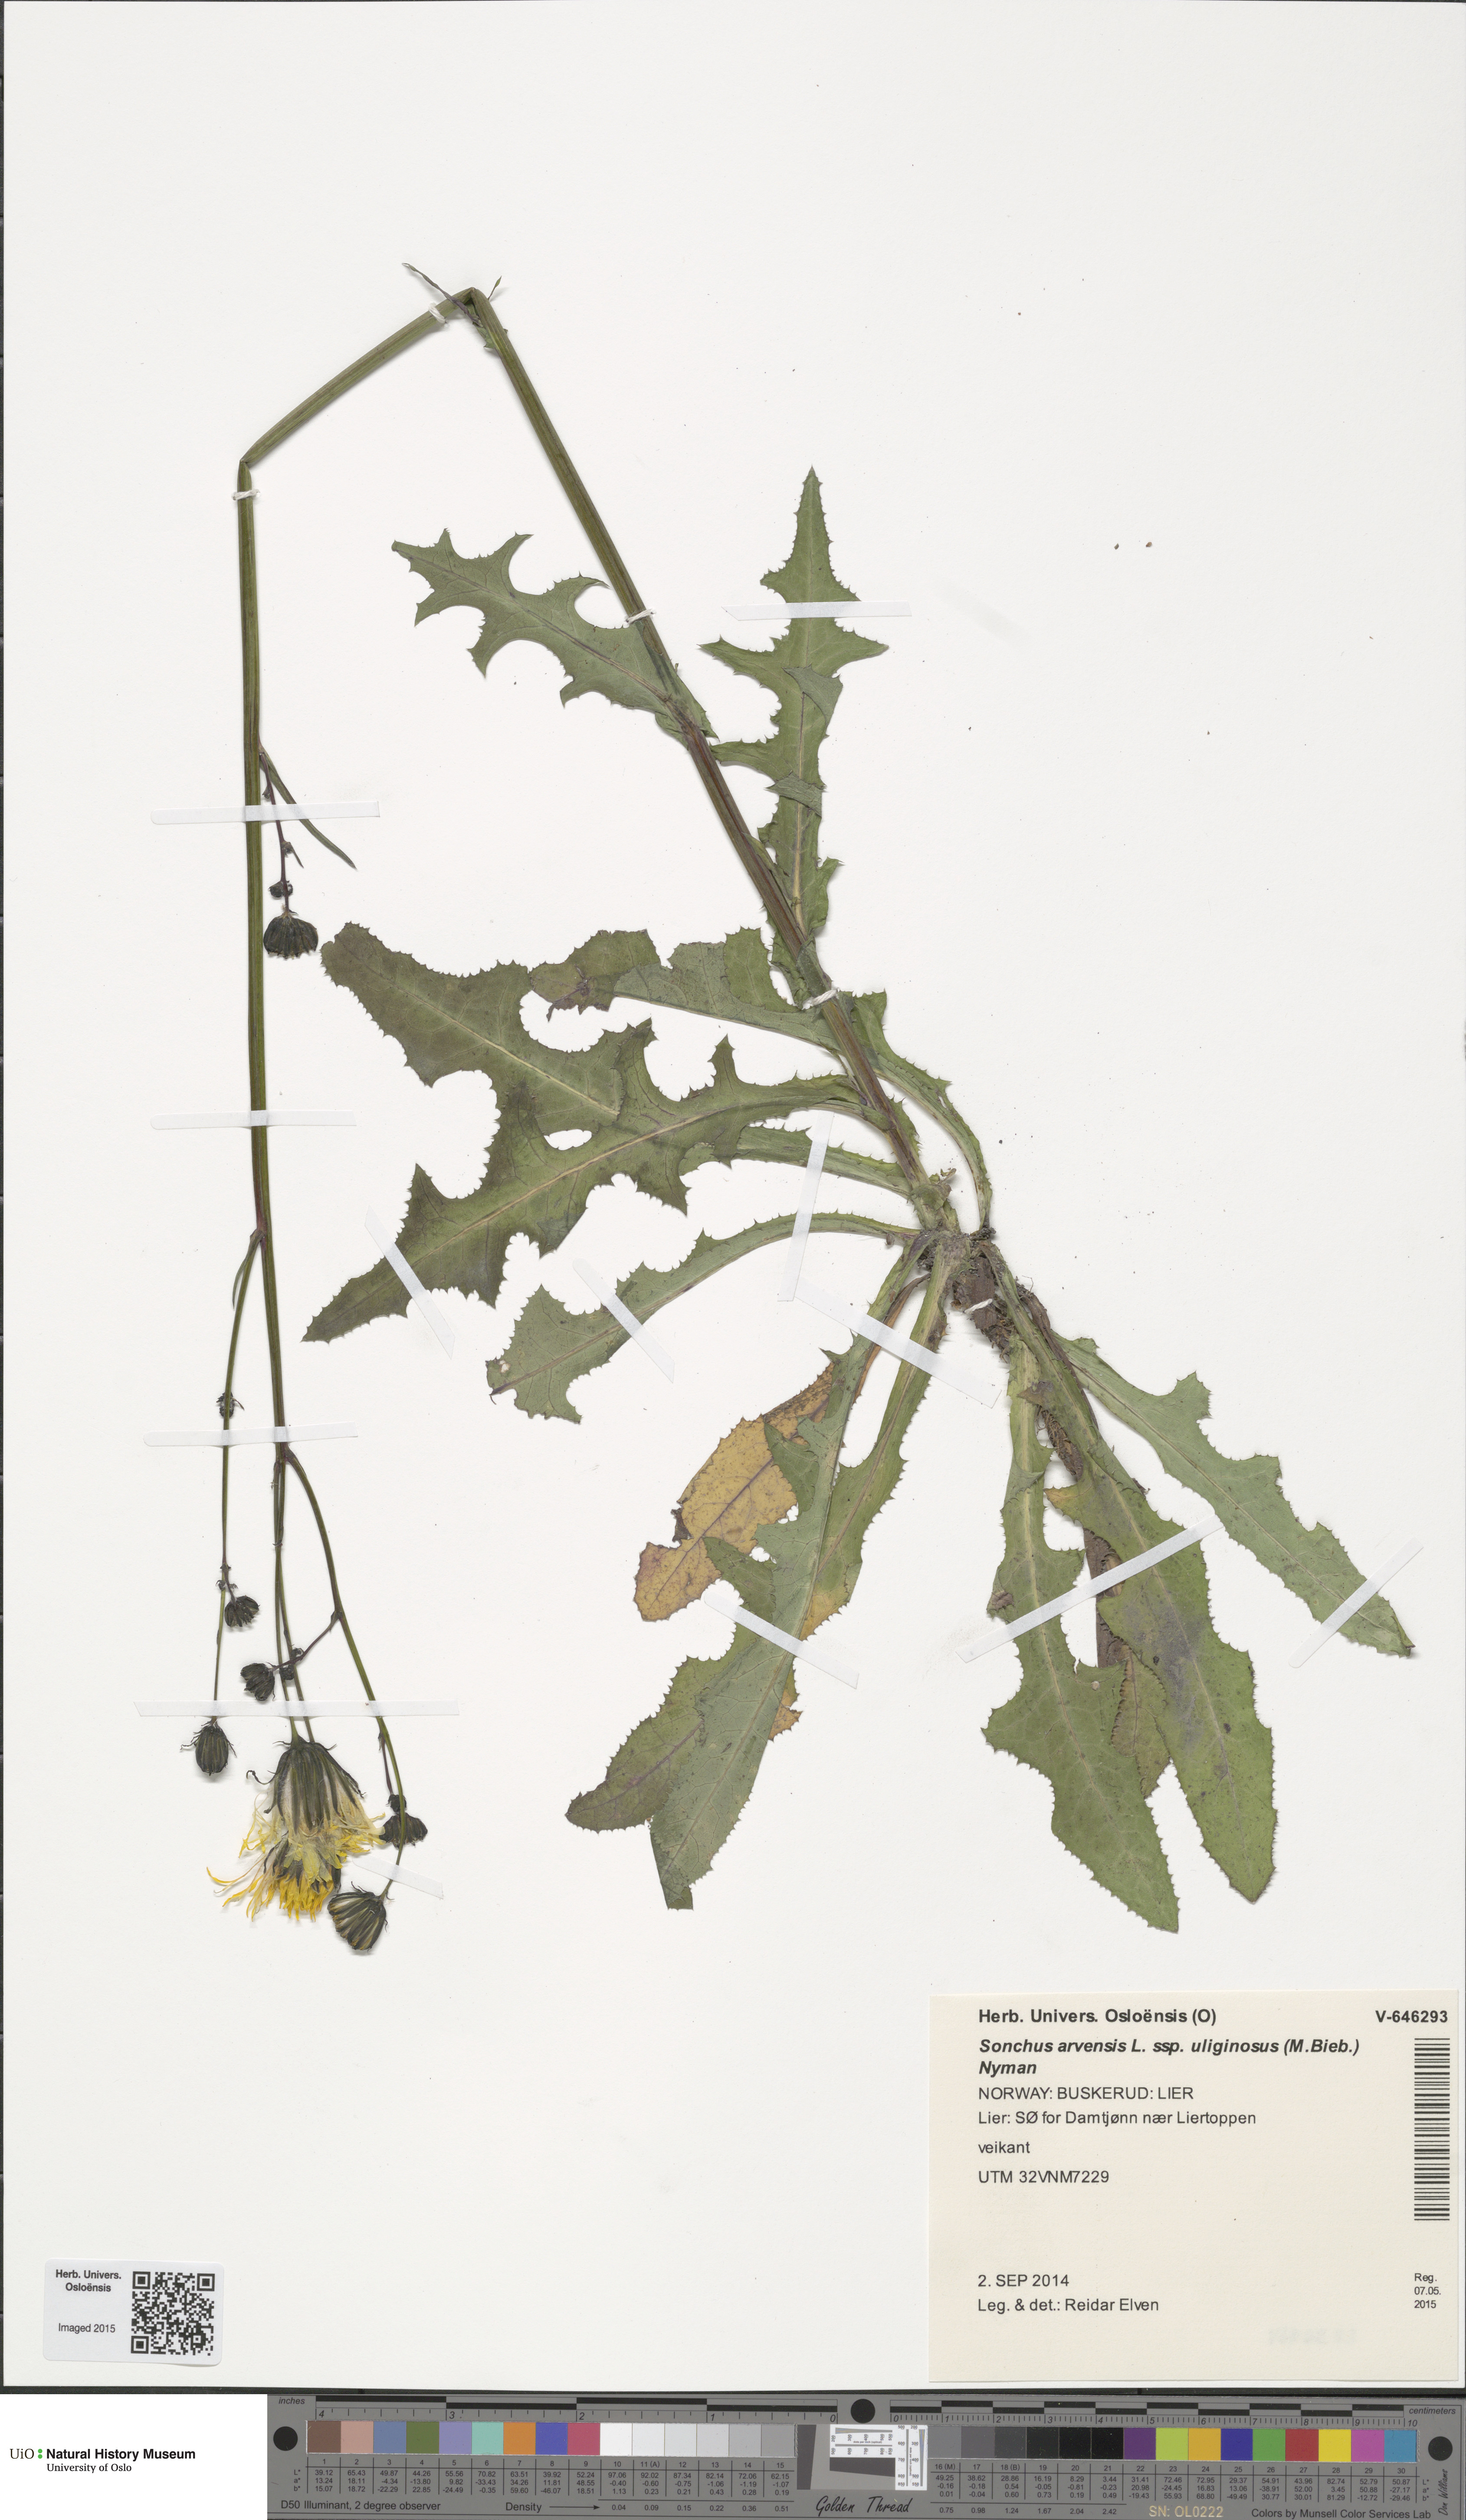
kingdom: Plantae
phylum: Tracheophyta
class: Magnoliopsida
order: Asterales
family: Asteraceae
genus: Sonchus
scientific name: Sonchus arvensis
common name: Perennial sow-thistle
